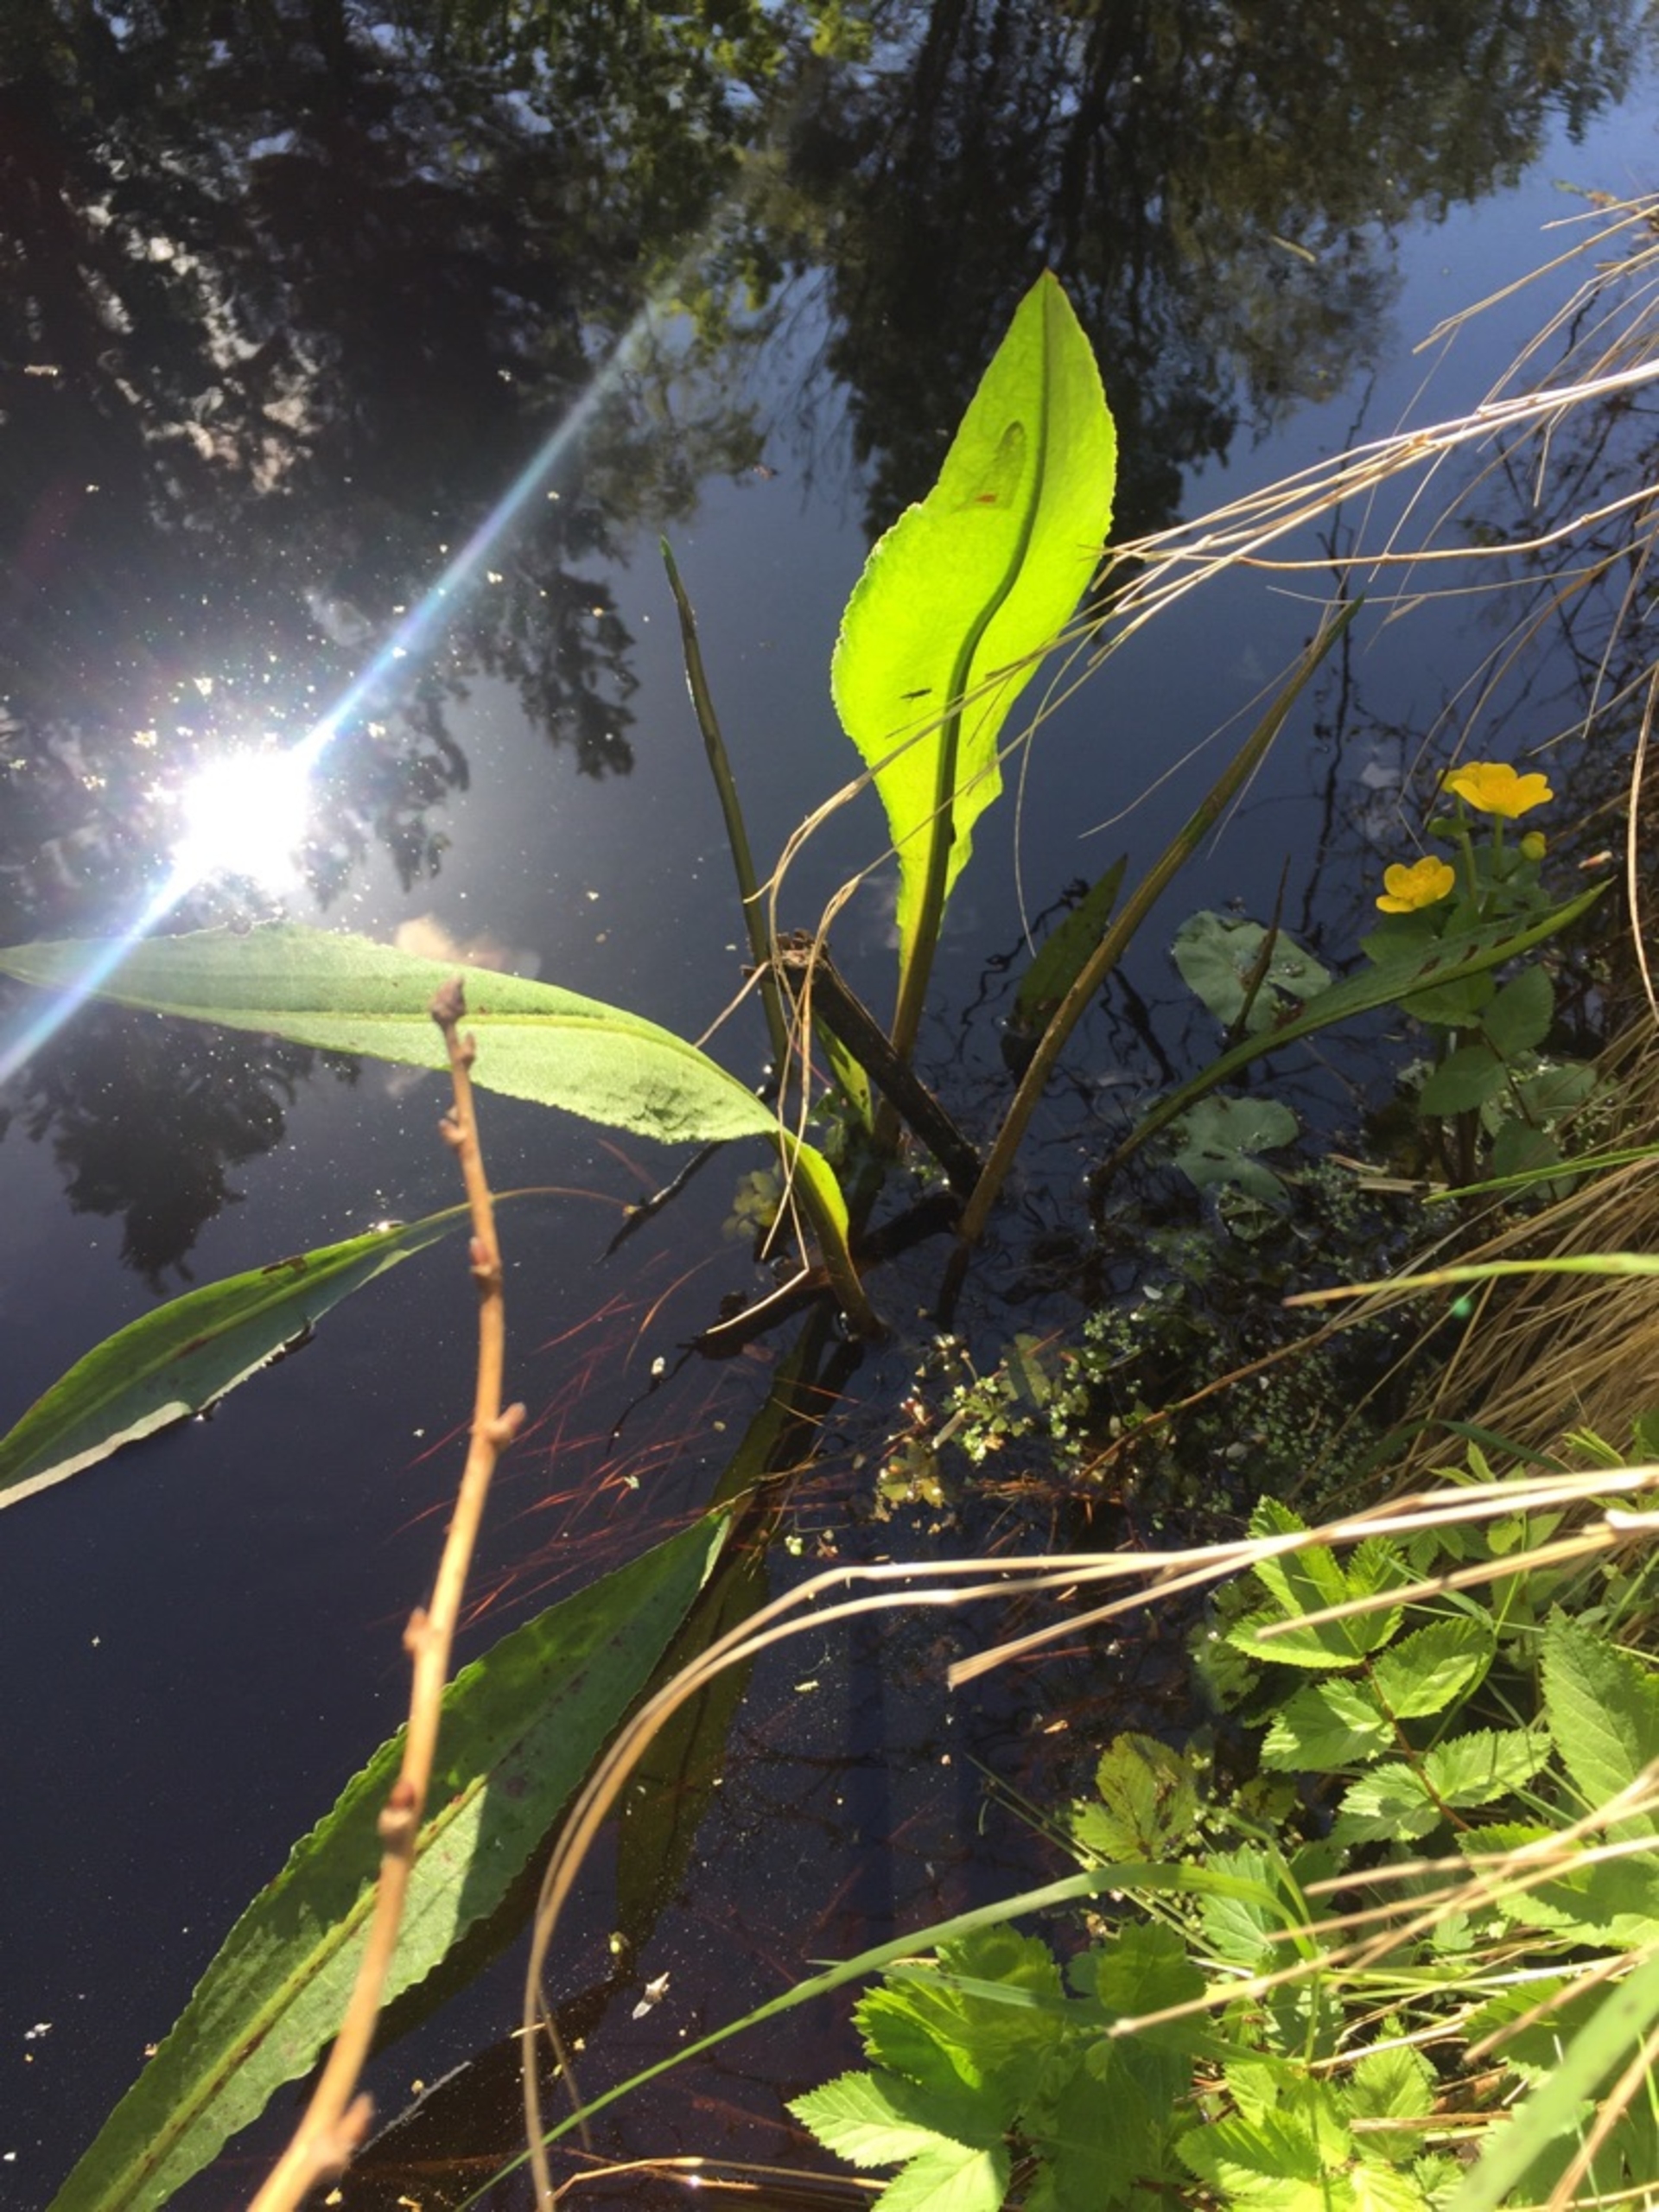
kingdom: Plantae
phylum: Tracheophyta
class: Magnoliopsida
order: Caryophyllales
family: Polygonaceae
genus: Rumex
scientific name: Rumex hydrolapathum
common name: Vand-skræppe
